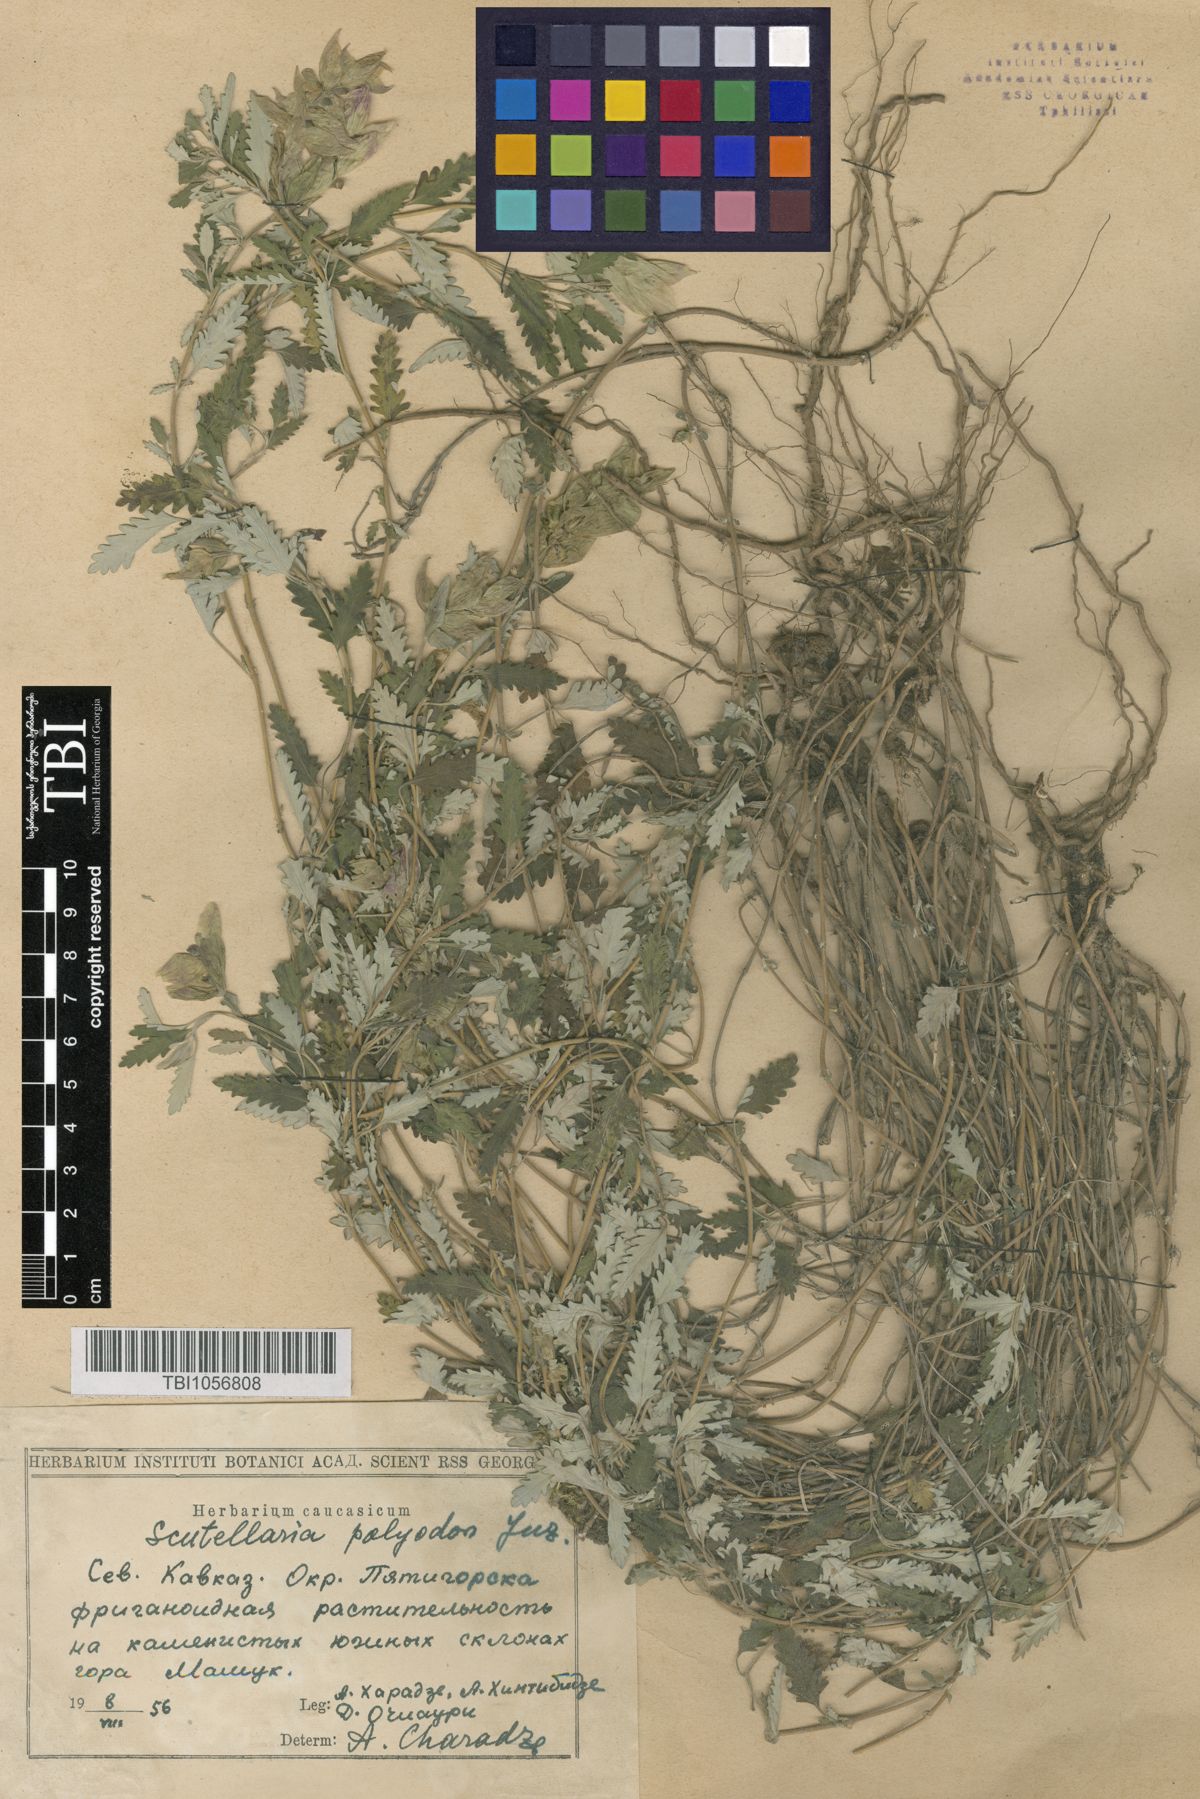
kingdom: Plantae
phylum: Tracheophyta
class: Magnoliopsida
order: Lamiales
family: Lamiaceae
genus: Scutellaria
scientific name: Scutellaria caucasica
